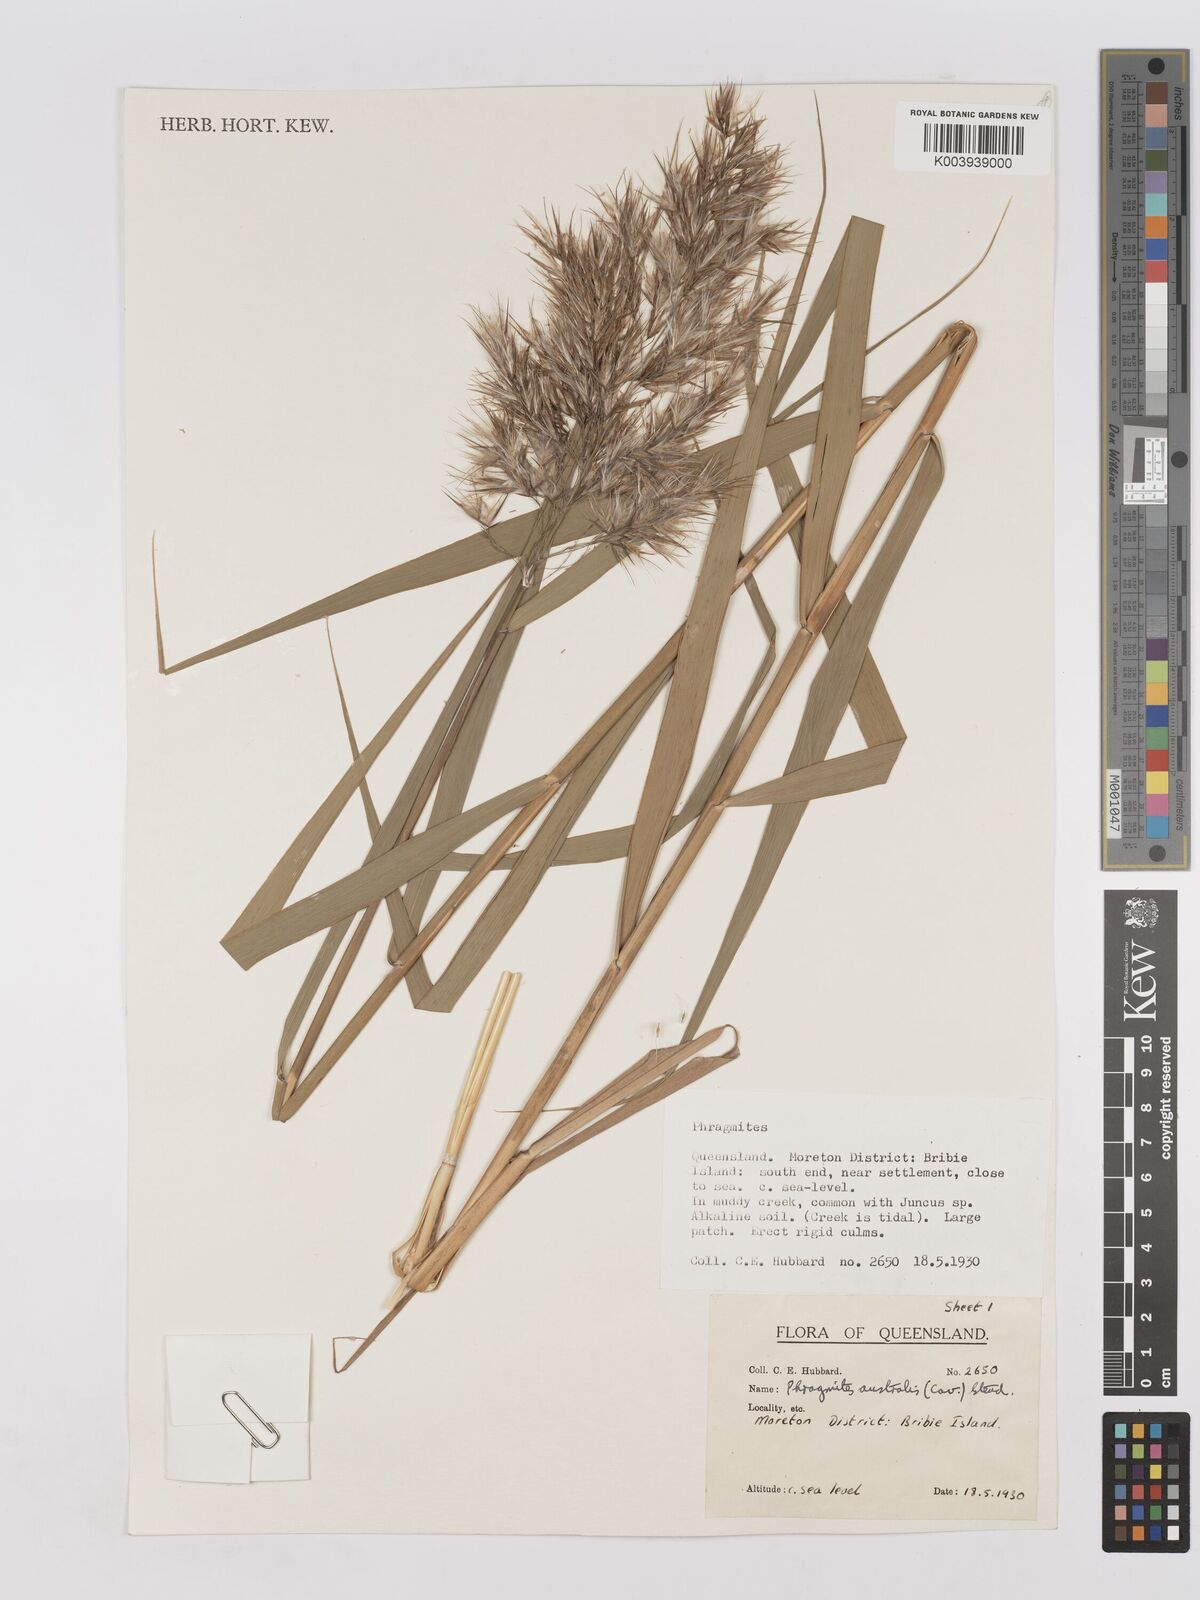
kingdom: Plantae
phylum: Tracheophyta
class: Liliopsida
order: Poales
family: Poaceae
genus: Phragmites
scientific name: Phragmites australis
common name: Common reed
